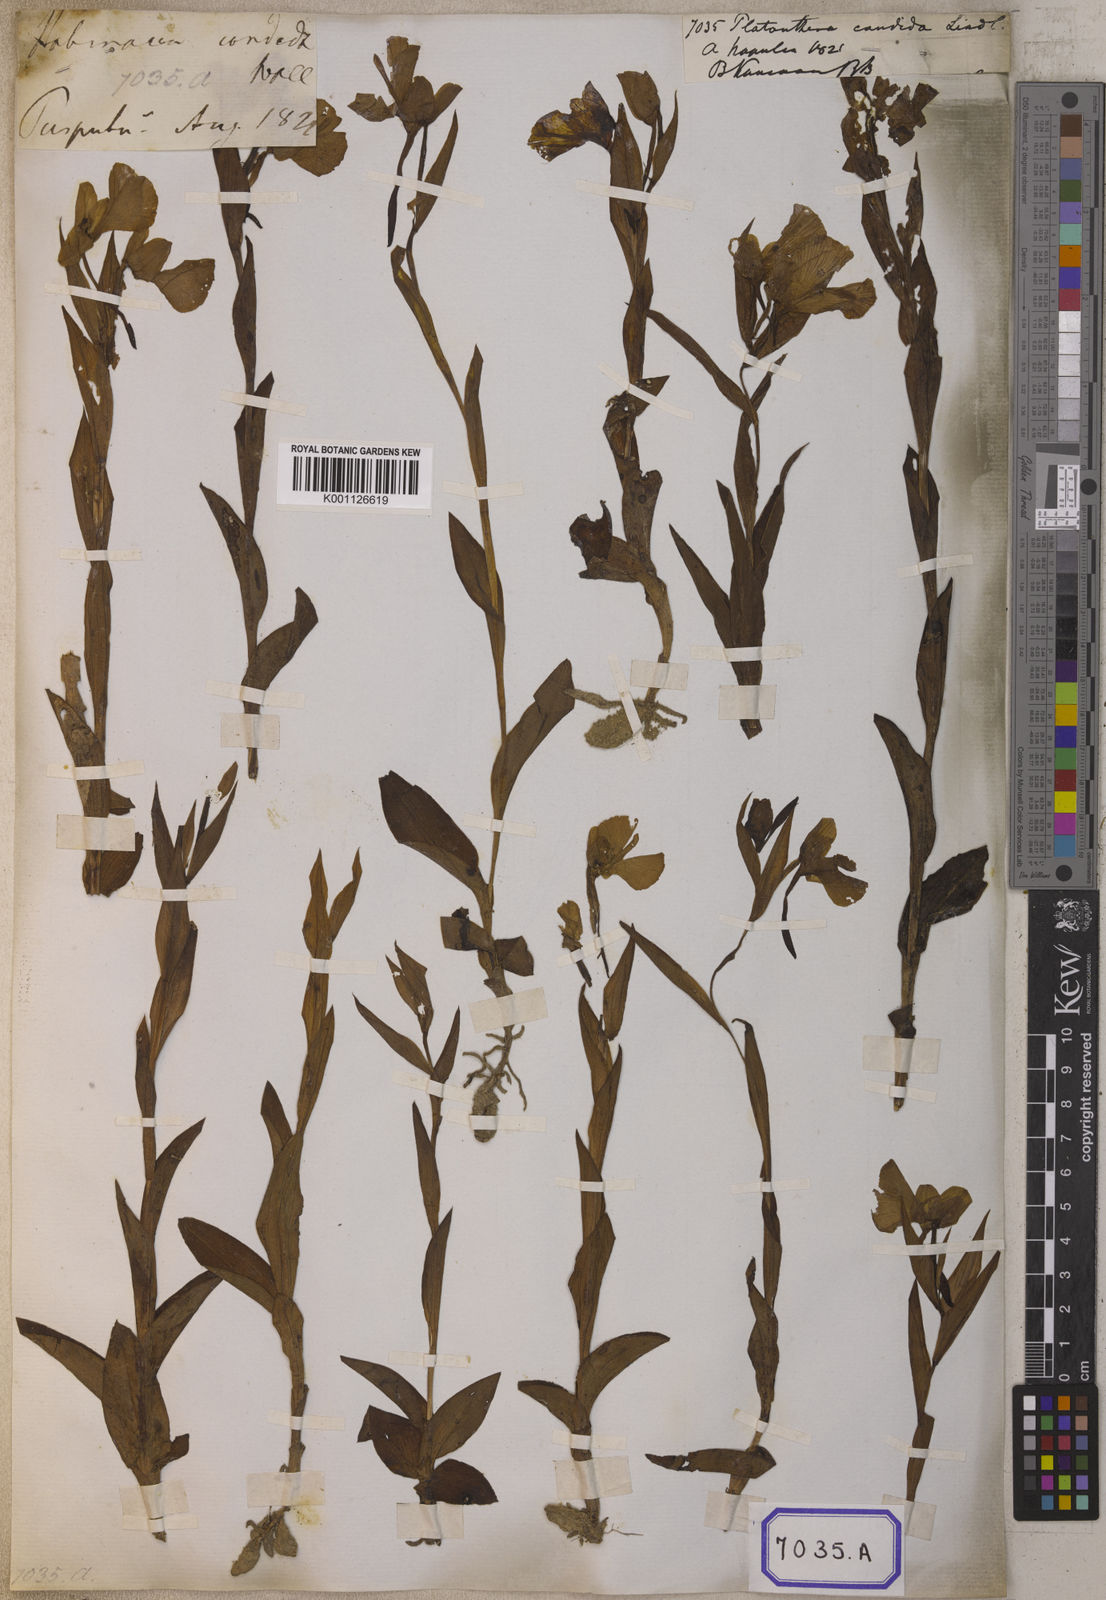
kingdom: Plantae
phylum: Tracheophyta
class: Liliopsida
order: Asparagales
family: Orchidaceae
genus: Pecteilis
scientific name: Pecteilis triflora
